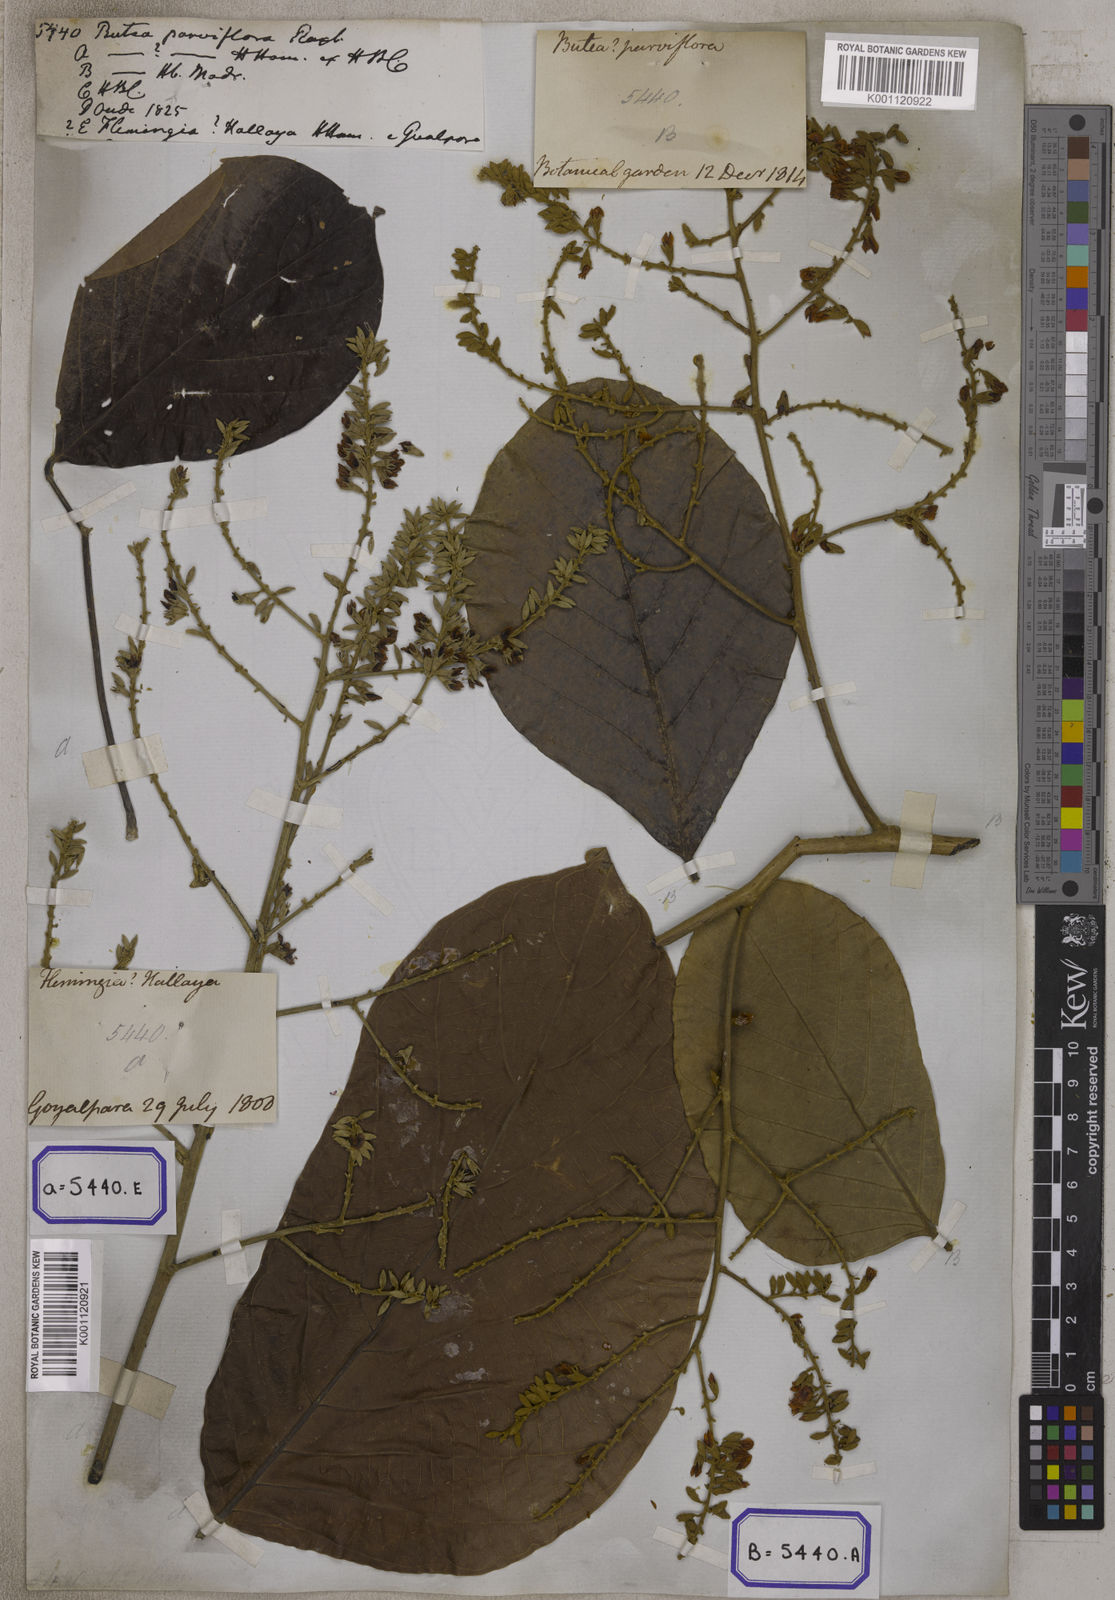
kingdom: Plantae
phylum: Tracheophyta
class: Magnoliopsida
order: Fabales
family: Fabaceae
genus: Butea
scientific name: Butea
